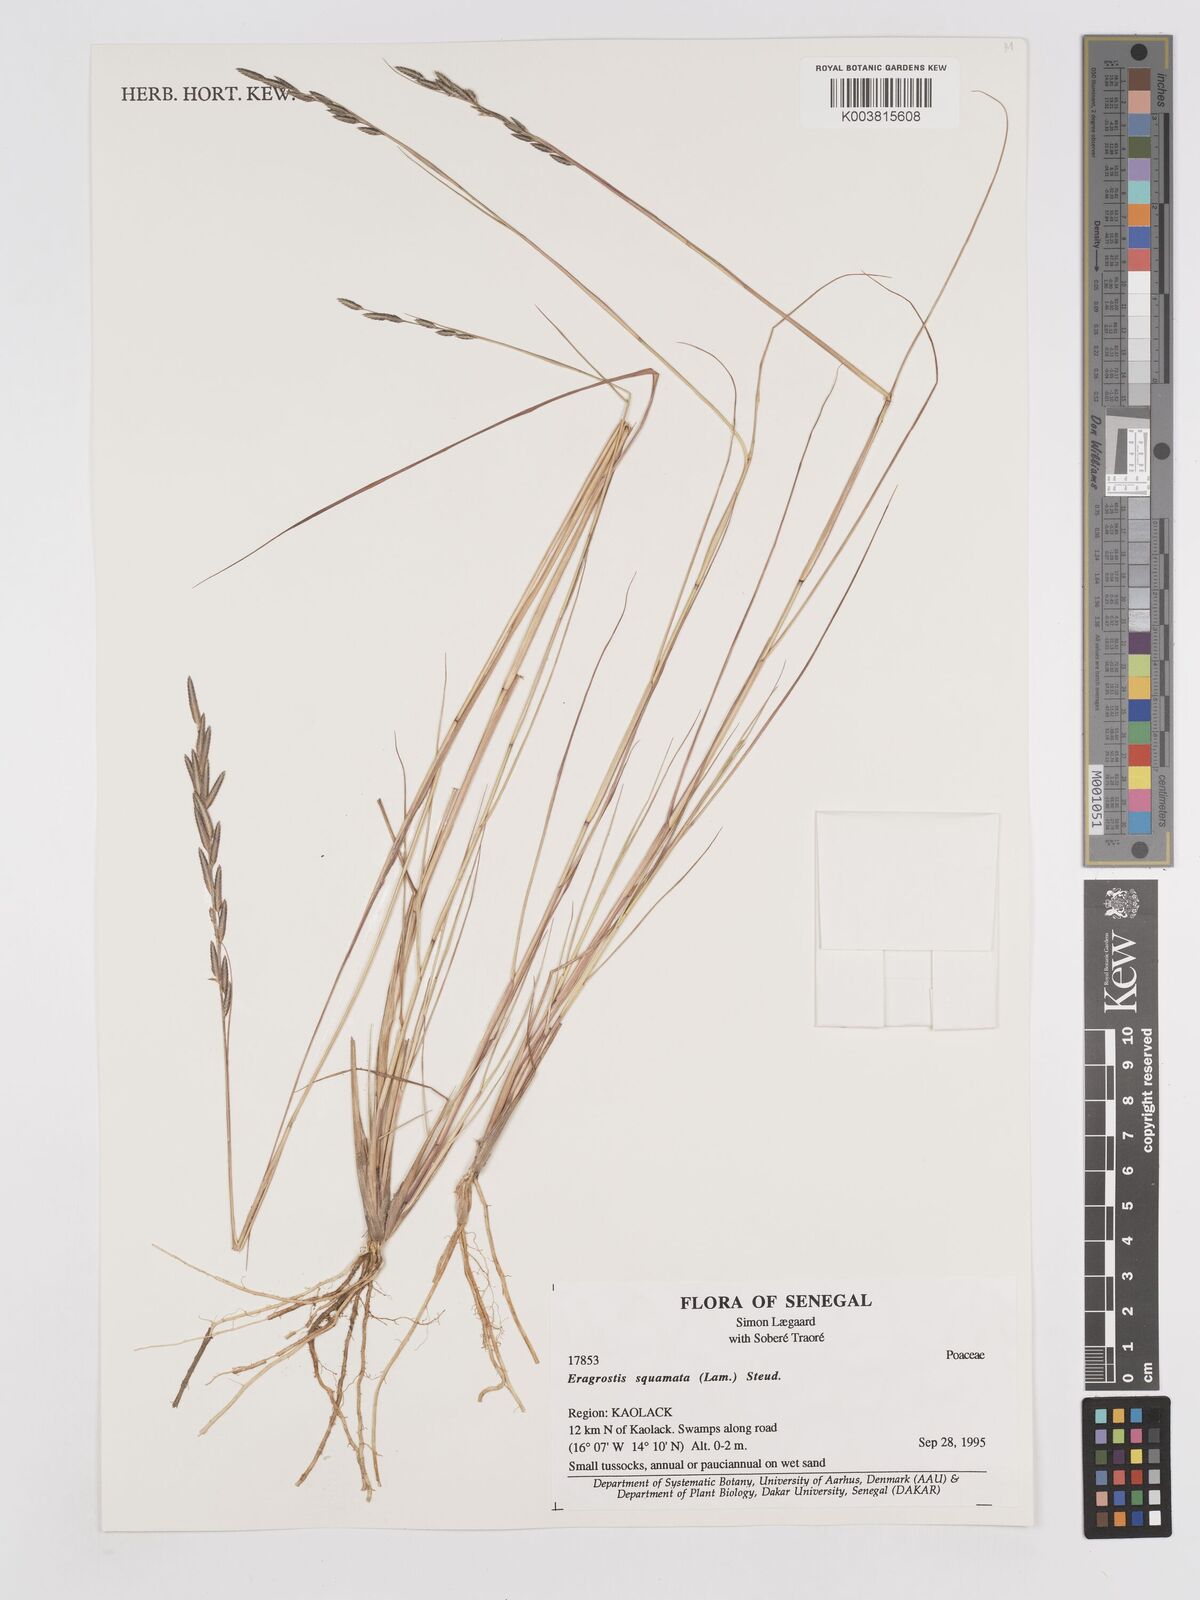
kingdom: Plantae
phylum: Tracheophyta
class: Liliopsida
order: Poales
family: Poaceae
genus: Eragrostis
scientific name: Eragrostis squamata
